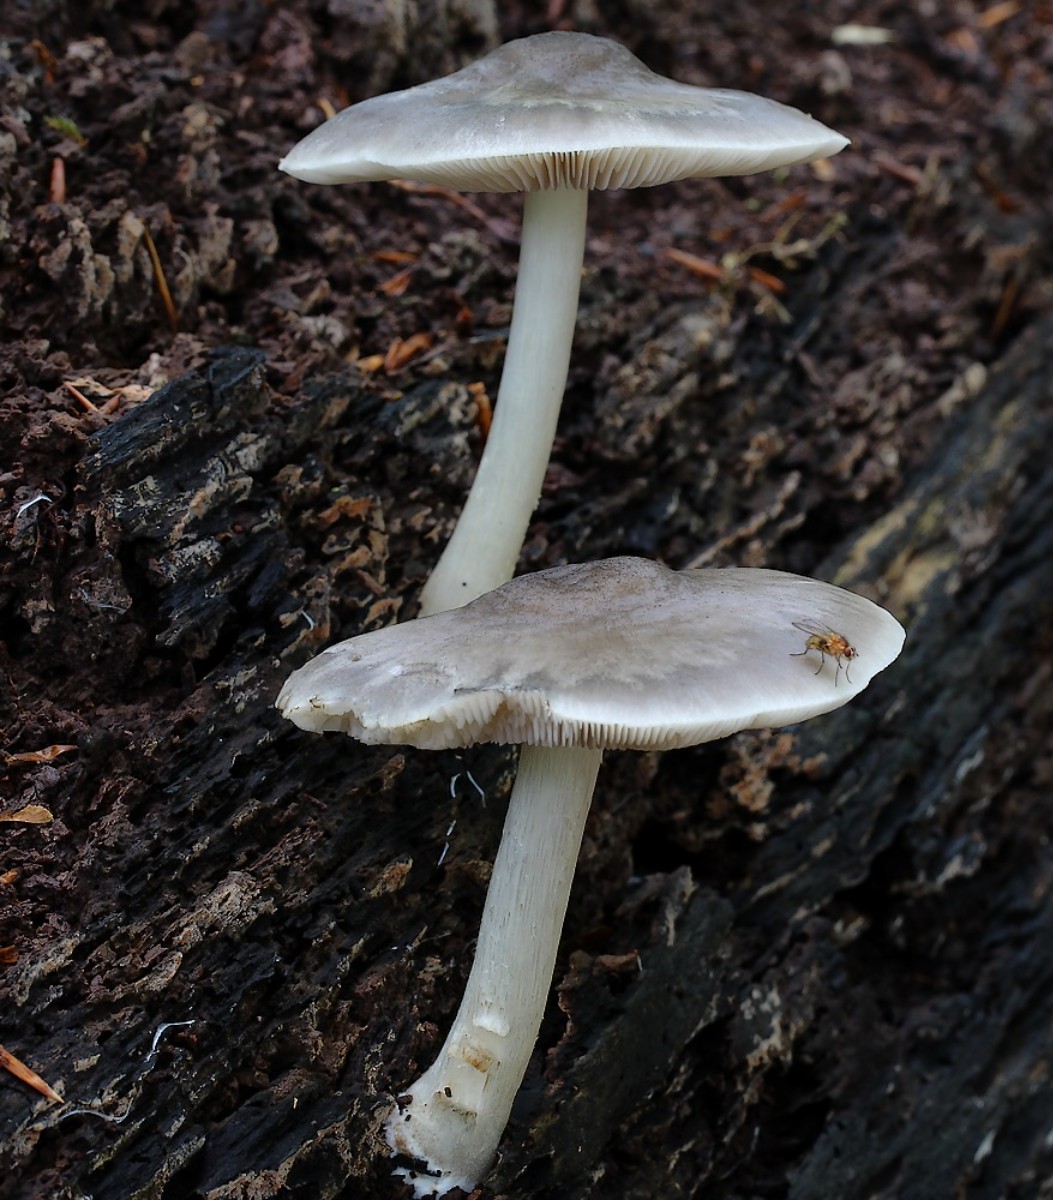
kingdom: Fungi
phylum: Basidiomycota
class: Agaricomycetes
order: Agaricales
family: Pluteaceae
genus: Pluteus
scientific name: Pluteus salicinus
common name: stiv skærmhat
